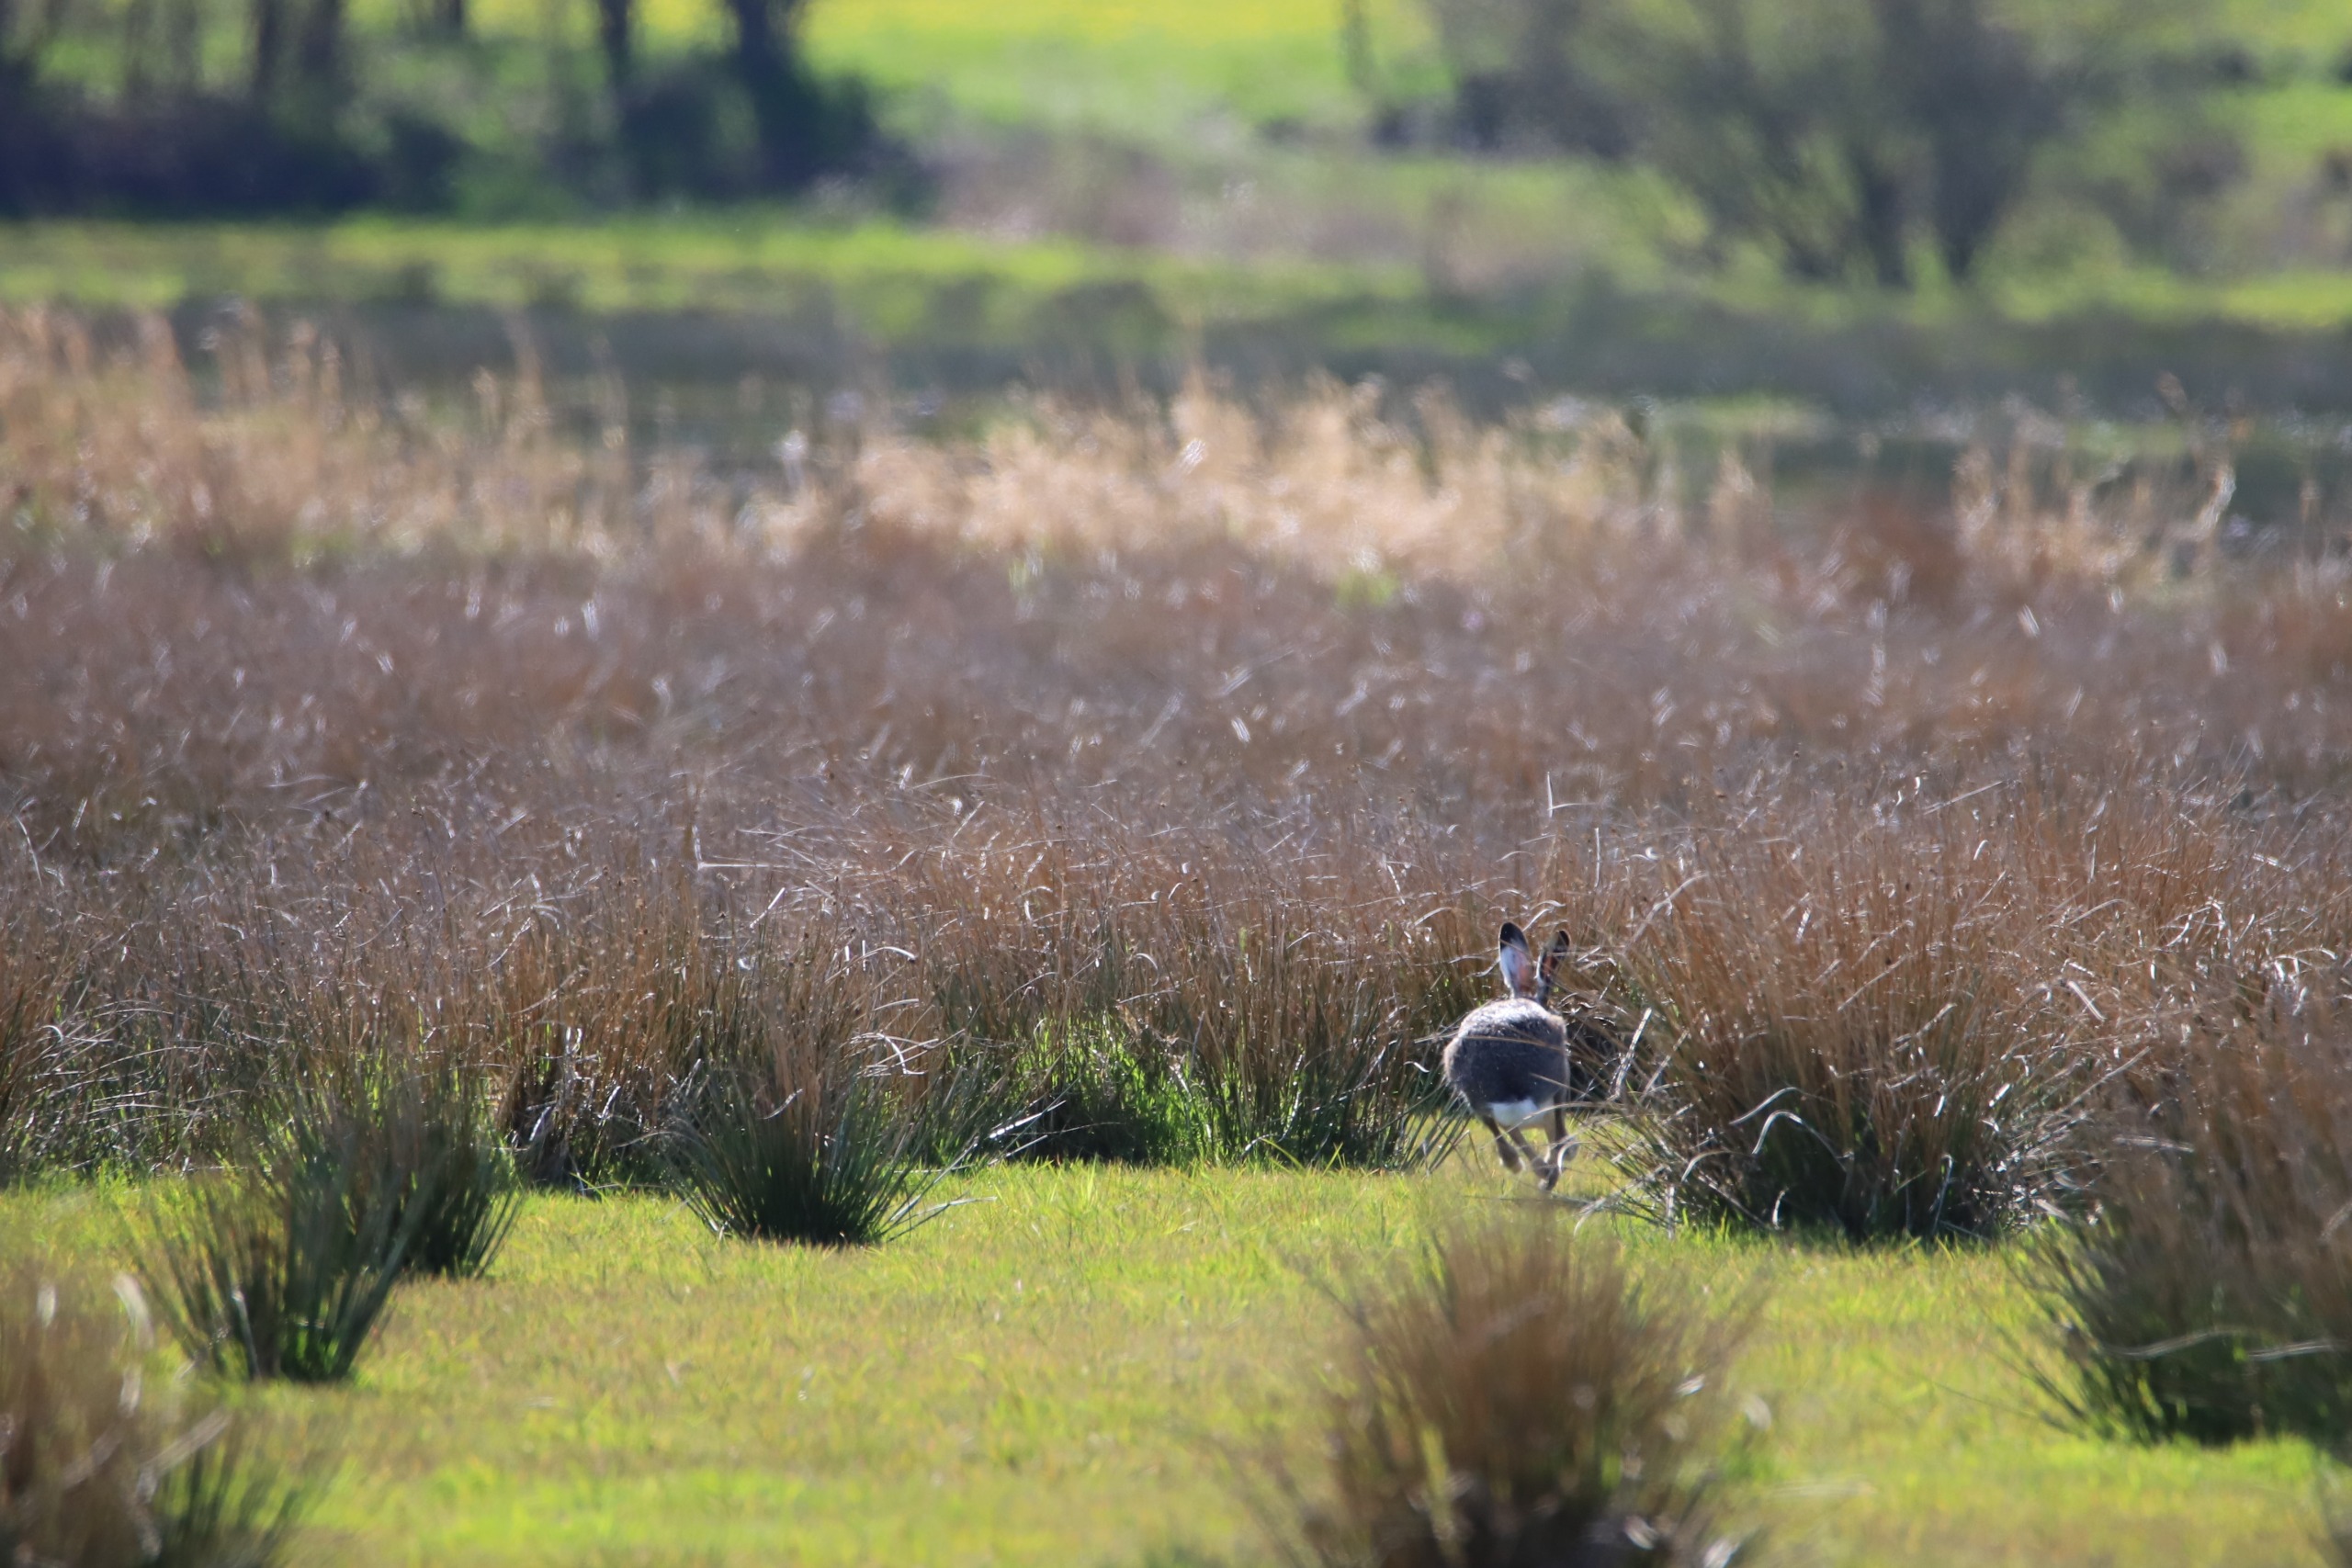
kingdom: Animalia
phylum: Chordata
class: Mammalia
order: Lagomorpha
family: Leporidae
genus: Lepus
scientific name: Lepus europaeus
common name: Hare
